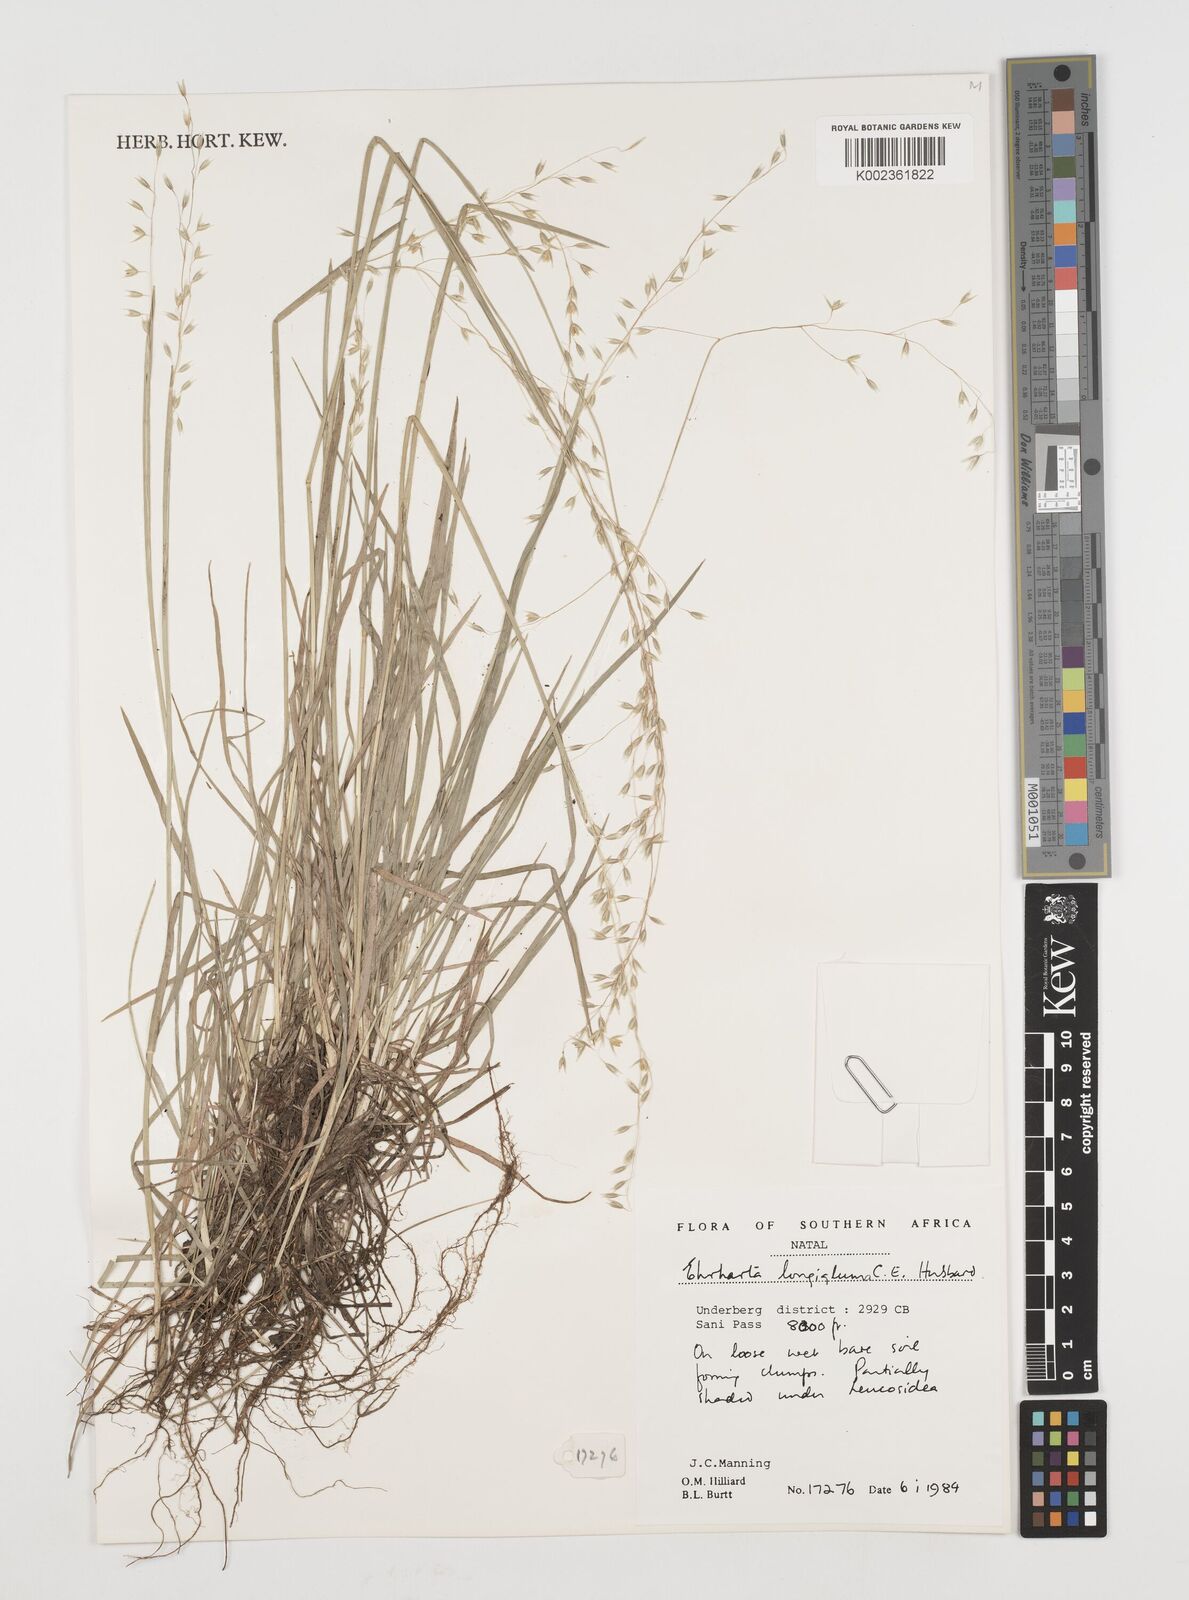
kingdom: Plantae
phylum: Tracheophyta
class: Liliopsida
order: Poales
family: Poaceae
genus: Ehrharta
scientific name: Ehrharta longigluma
